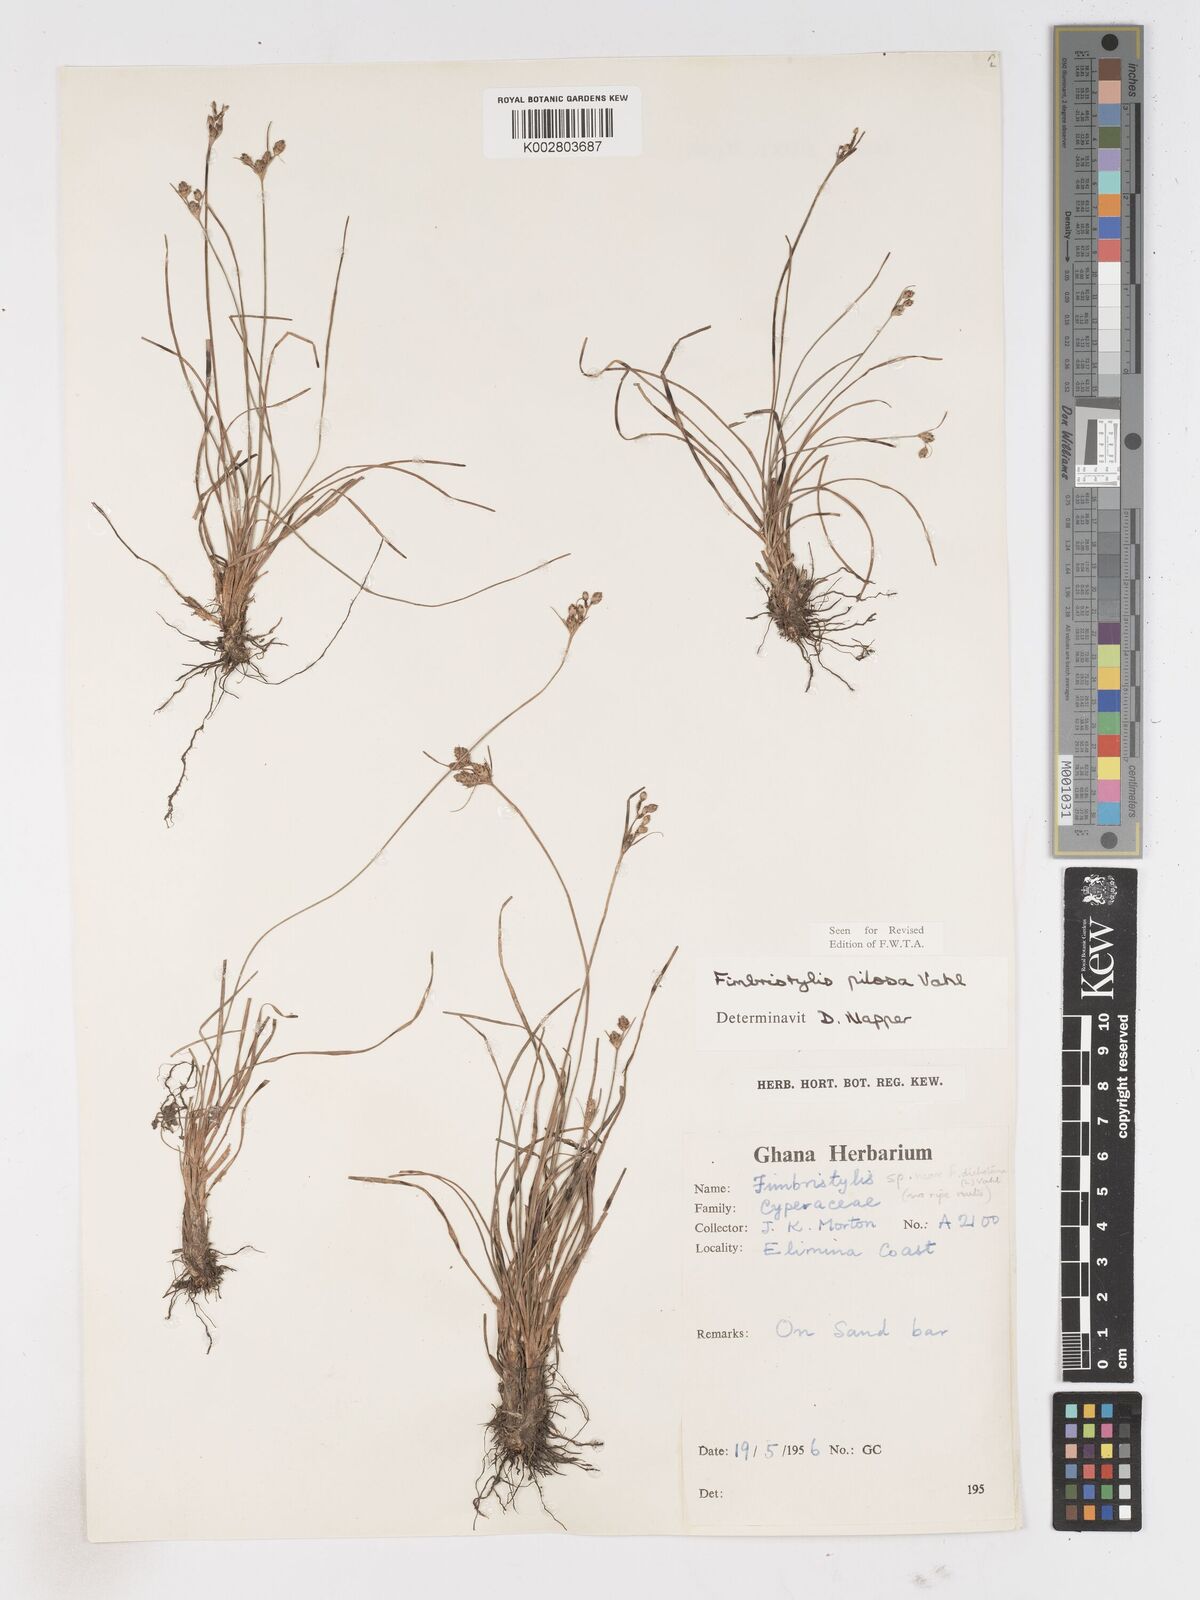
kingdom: Plantae
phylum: Tracheophyta
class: Liliopsida
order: Poales
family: Cyperaceae
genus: Fimbristylis
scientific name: Fimbristylis pilosa
